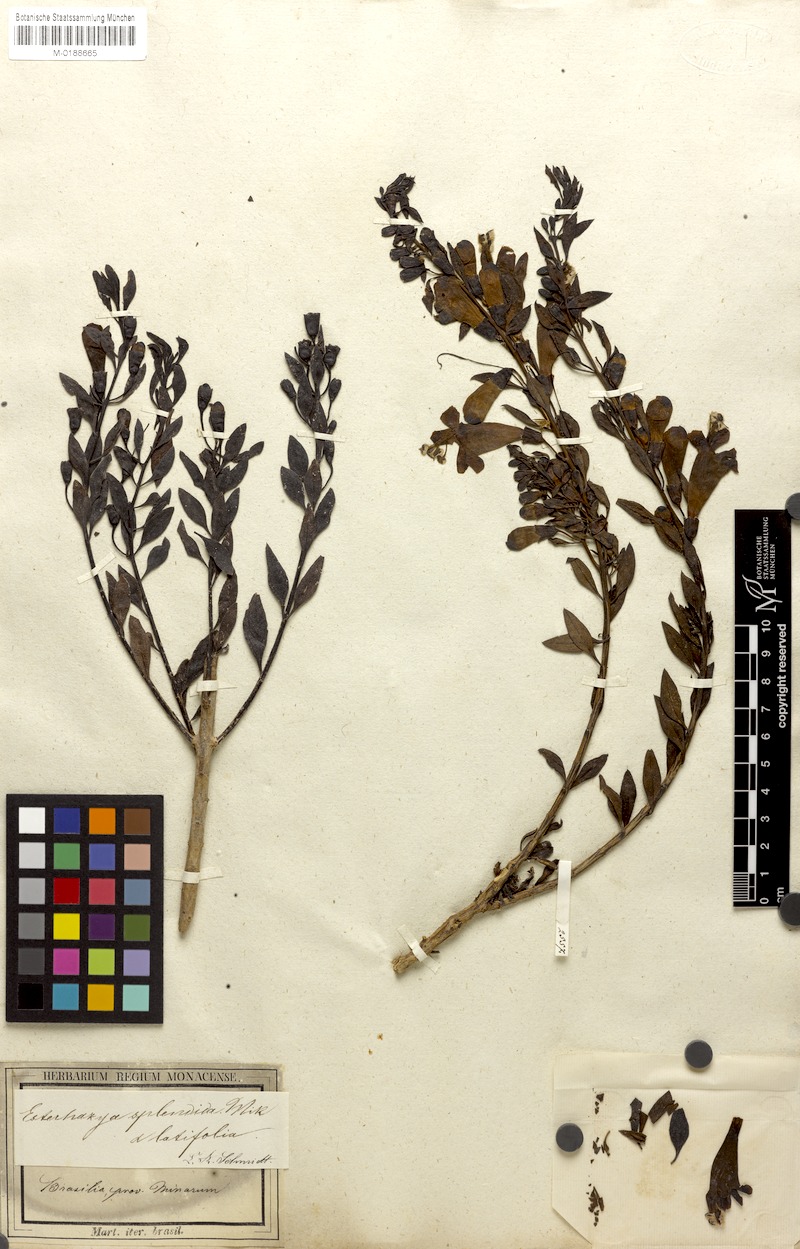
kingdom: Plantae
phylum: Tracheophyta
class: Magnoliopsida
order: Lamiales
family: Orobanchaceae
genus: Esterhazya
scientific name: Esterhazya splendida
